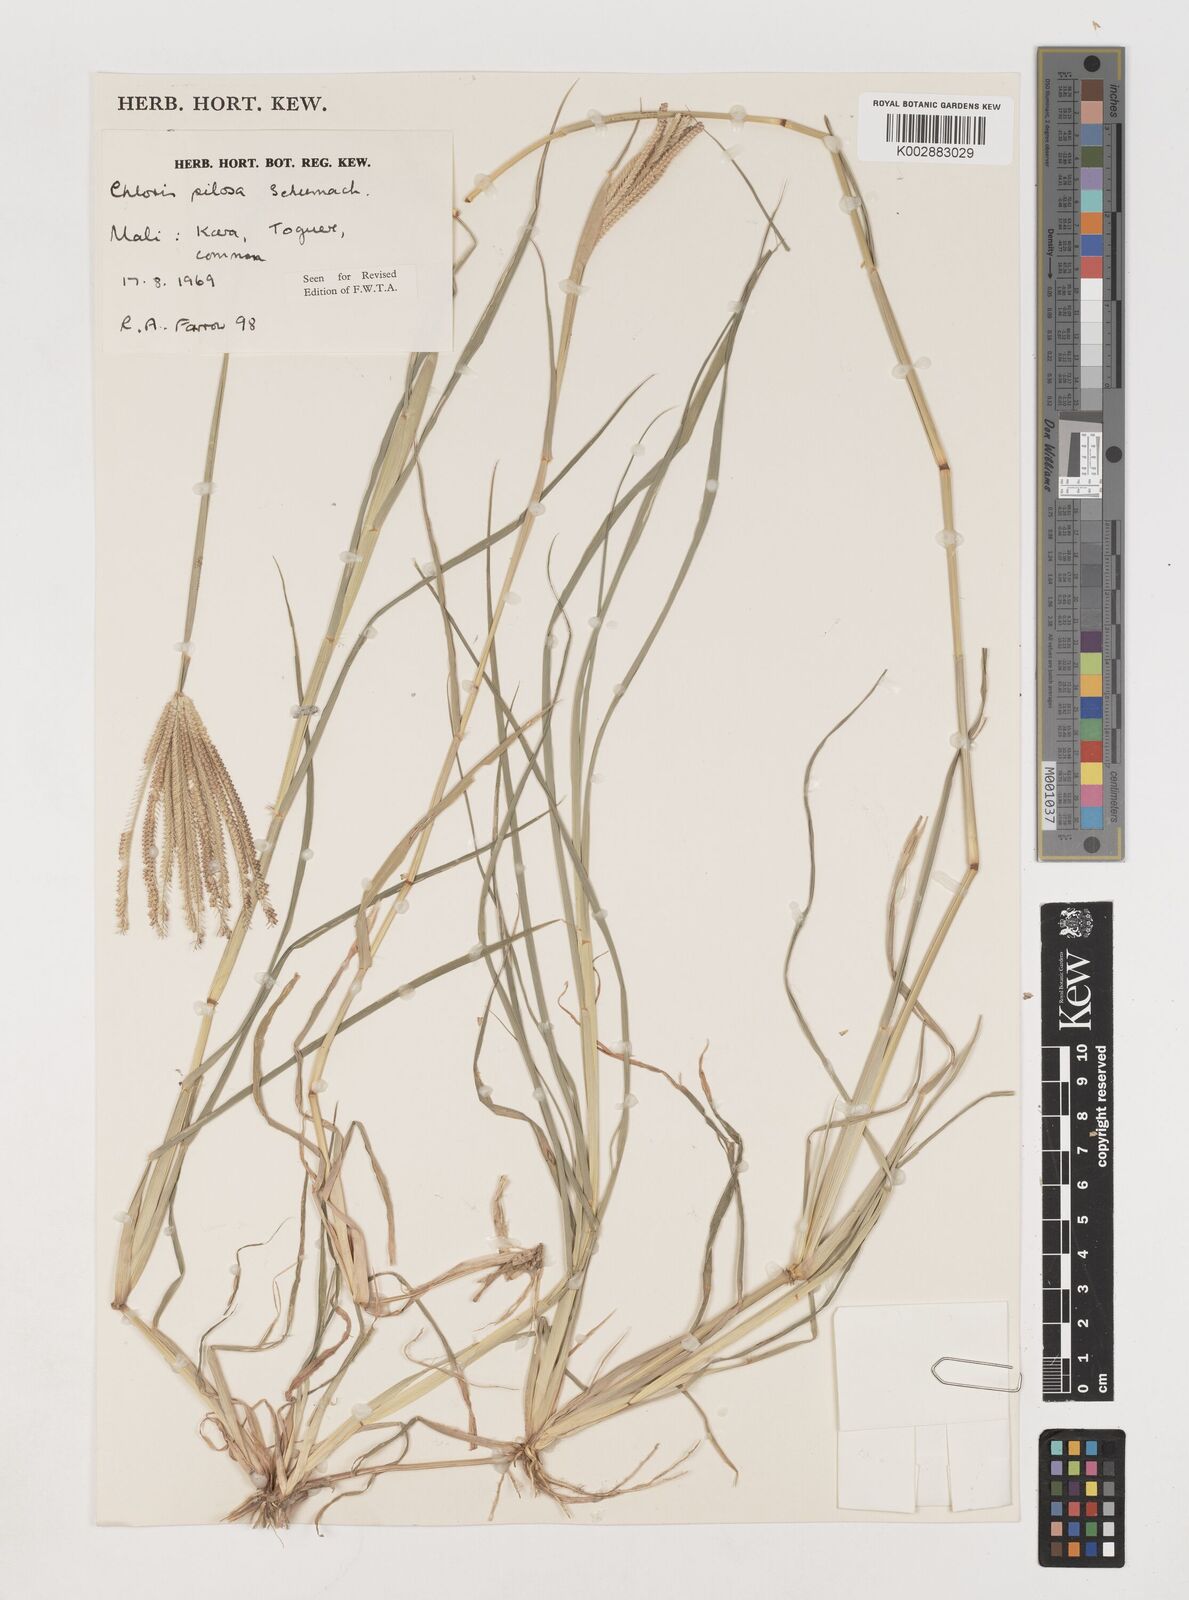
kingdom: Plantae
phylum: Tracheophyta
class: Liliopsida
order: Poales
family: Poaceae
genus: Chloris
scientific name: Chloris pilosa
